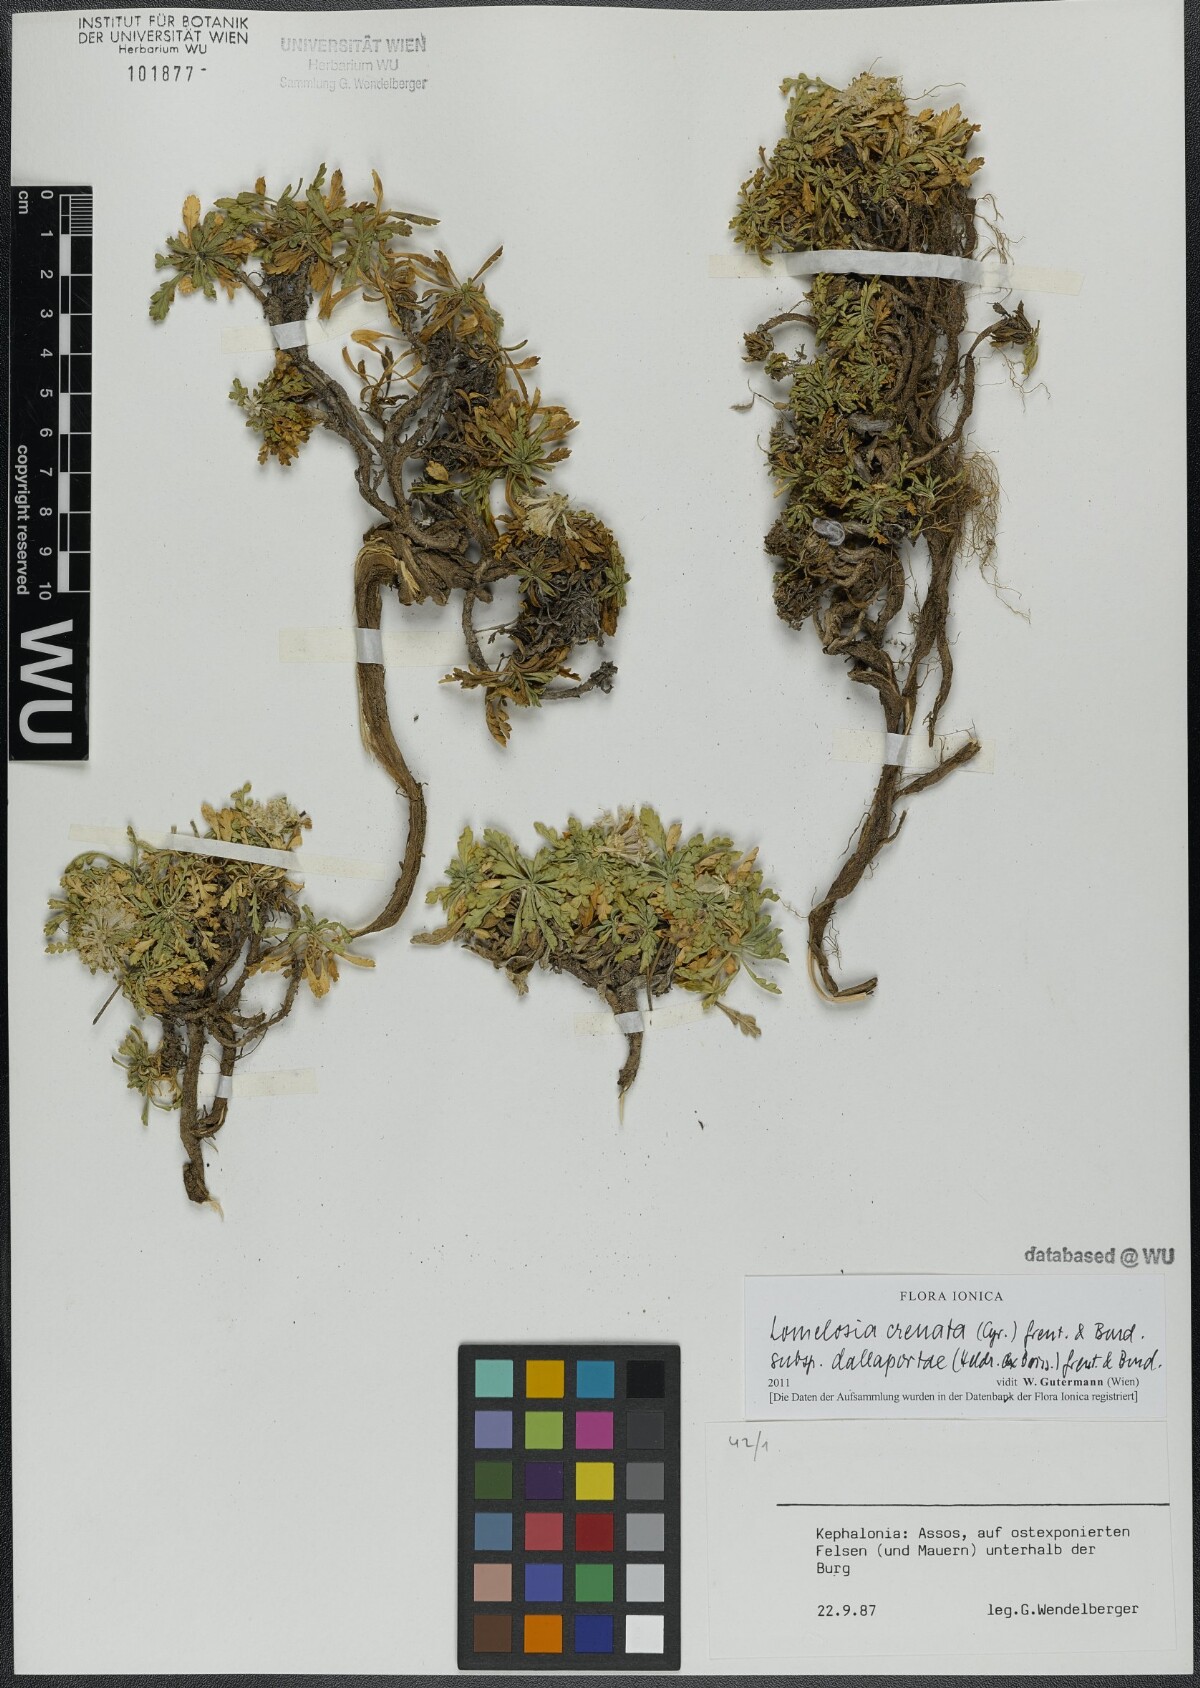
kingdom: Plantae
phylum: Tracheophyta
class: Magnoliopsida
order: Dipsacales
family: Caprifoliaceae
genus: Lomelosia
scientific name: Lomelosia crenata
